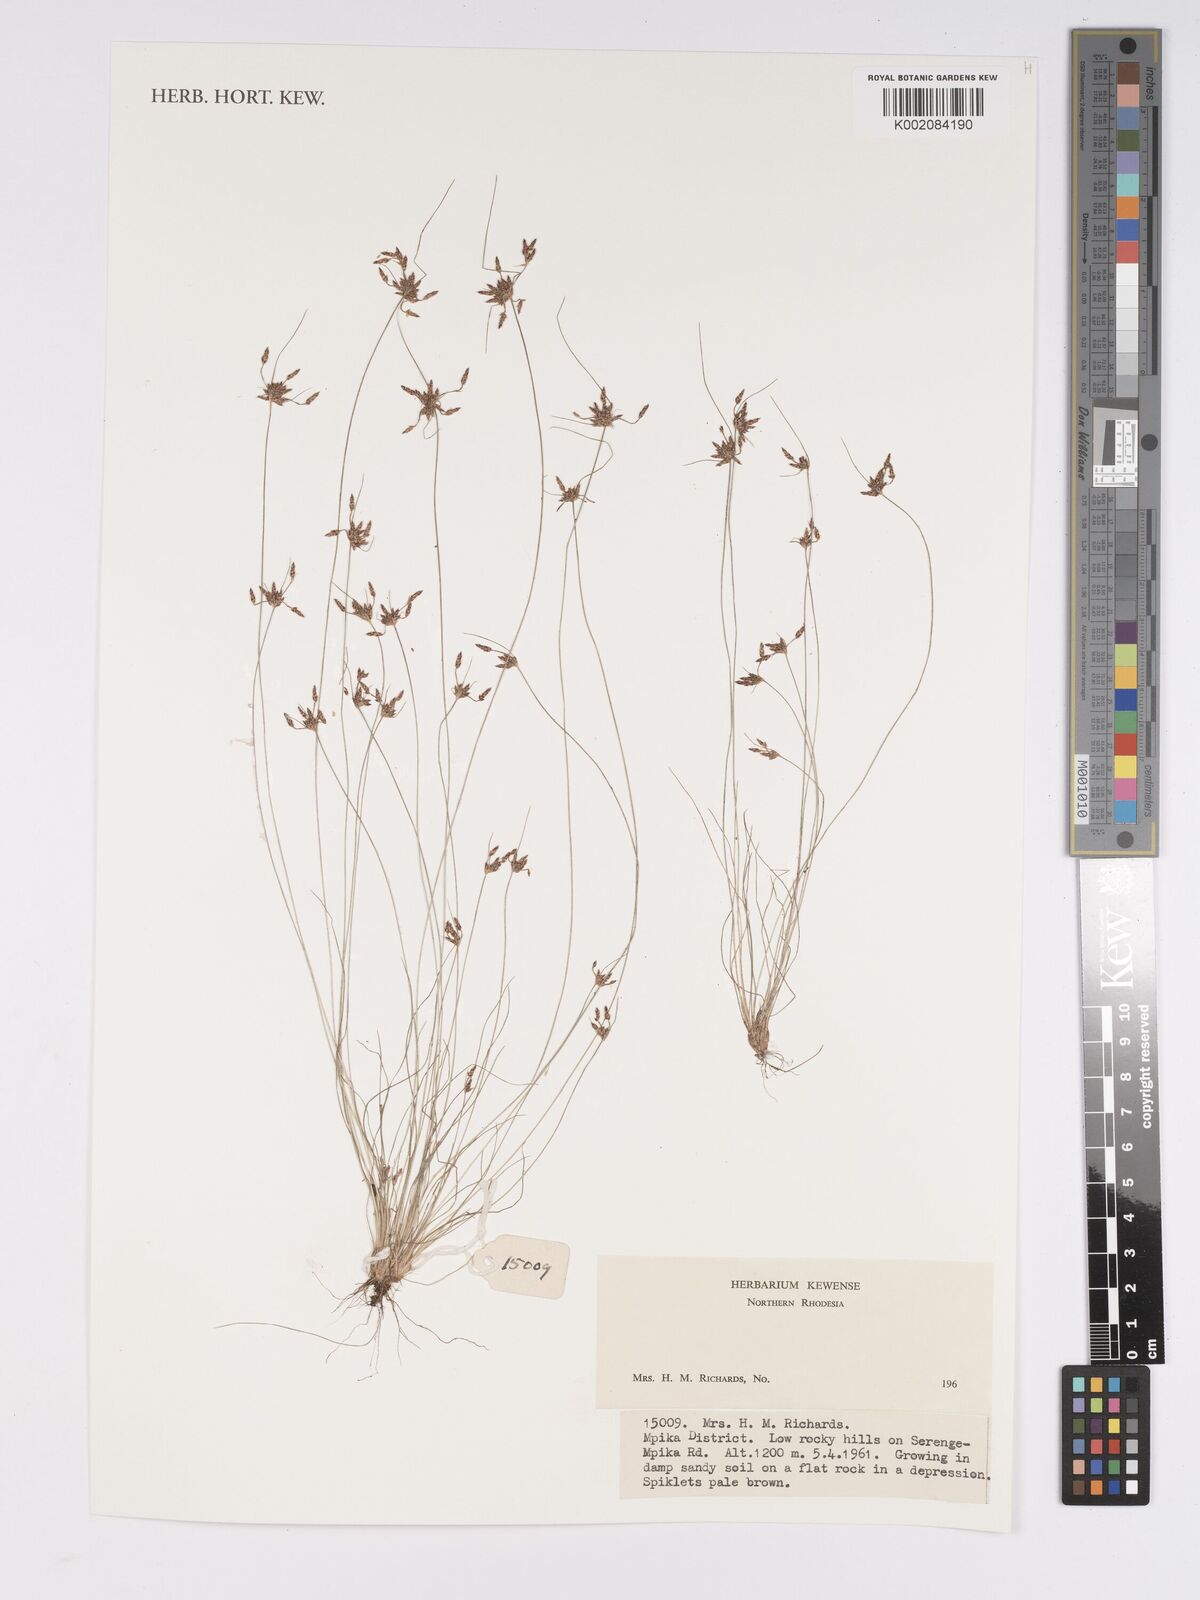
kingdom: Plantae
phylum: Tracheophyta
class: Liliopsida
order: Poales
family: Cyperaceae
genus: Bulbostylis
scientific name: Bulbostylis
